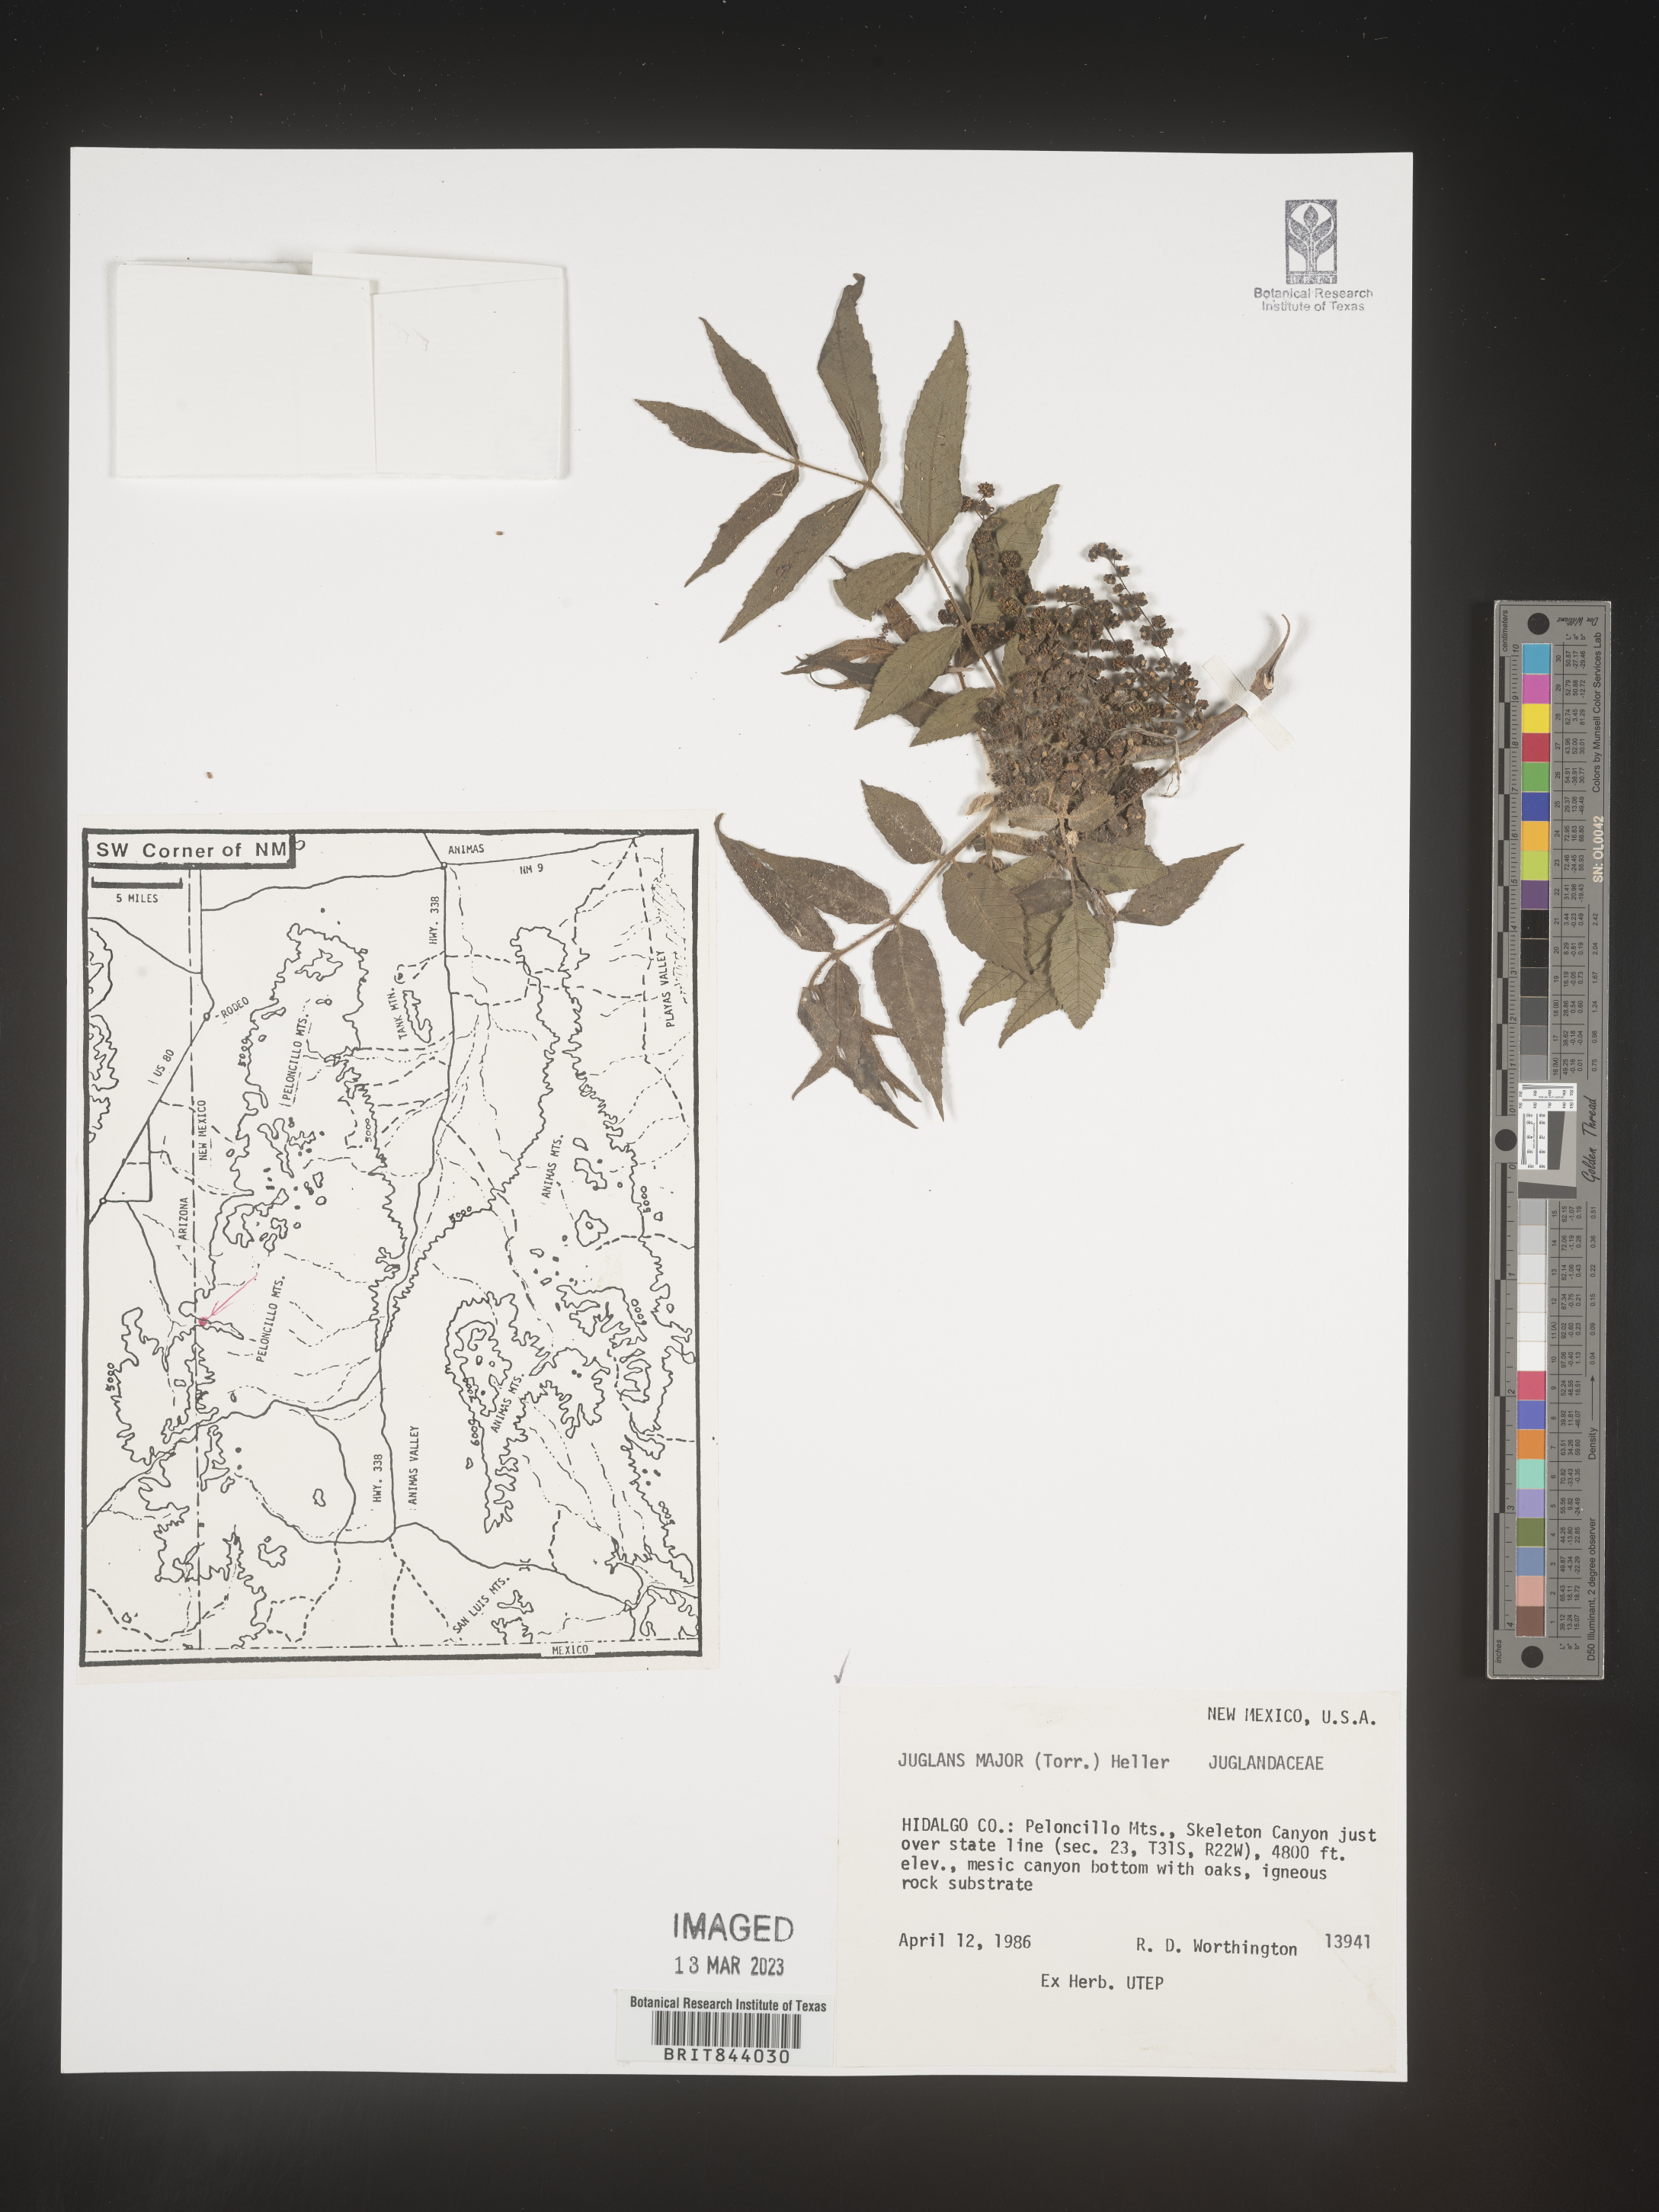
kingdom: Plantae
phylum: Tracheophyta
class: Magnoliopsida
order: Fagales
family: Juglandaceae
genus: Juglans
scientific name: Juglans major
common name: Arizona walnut
